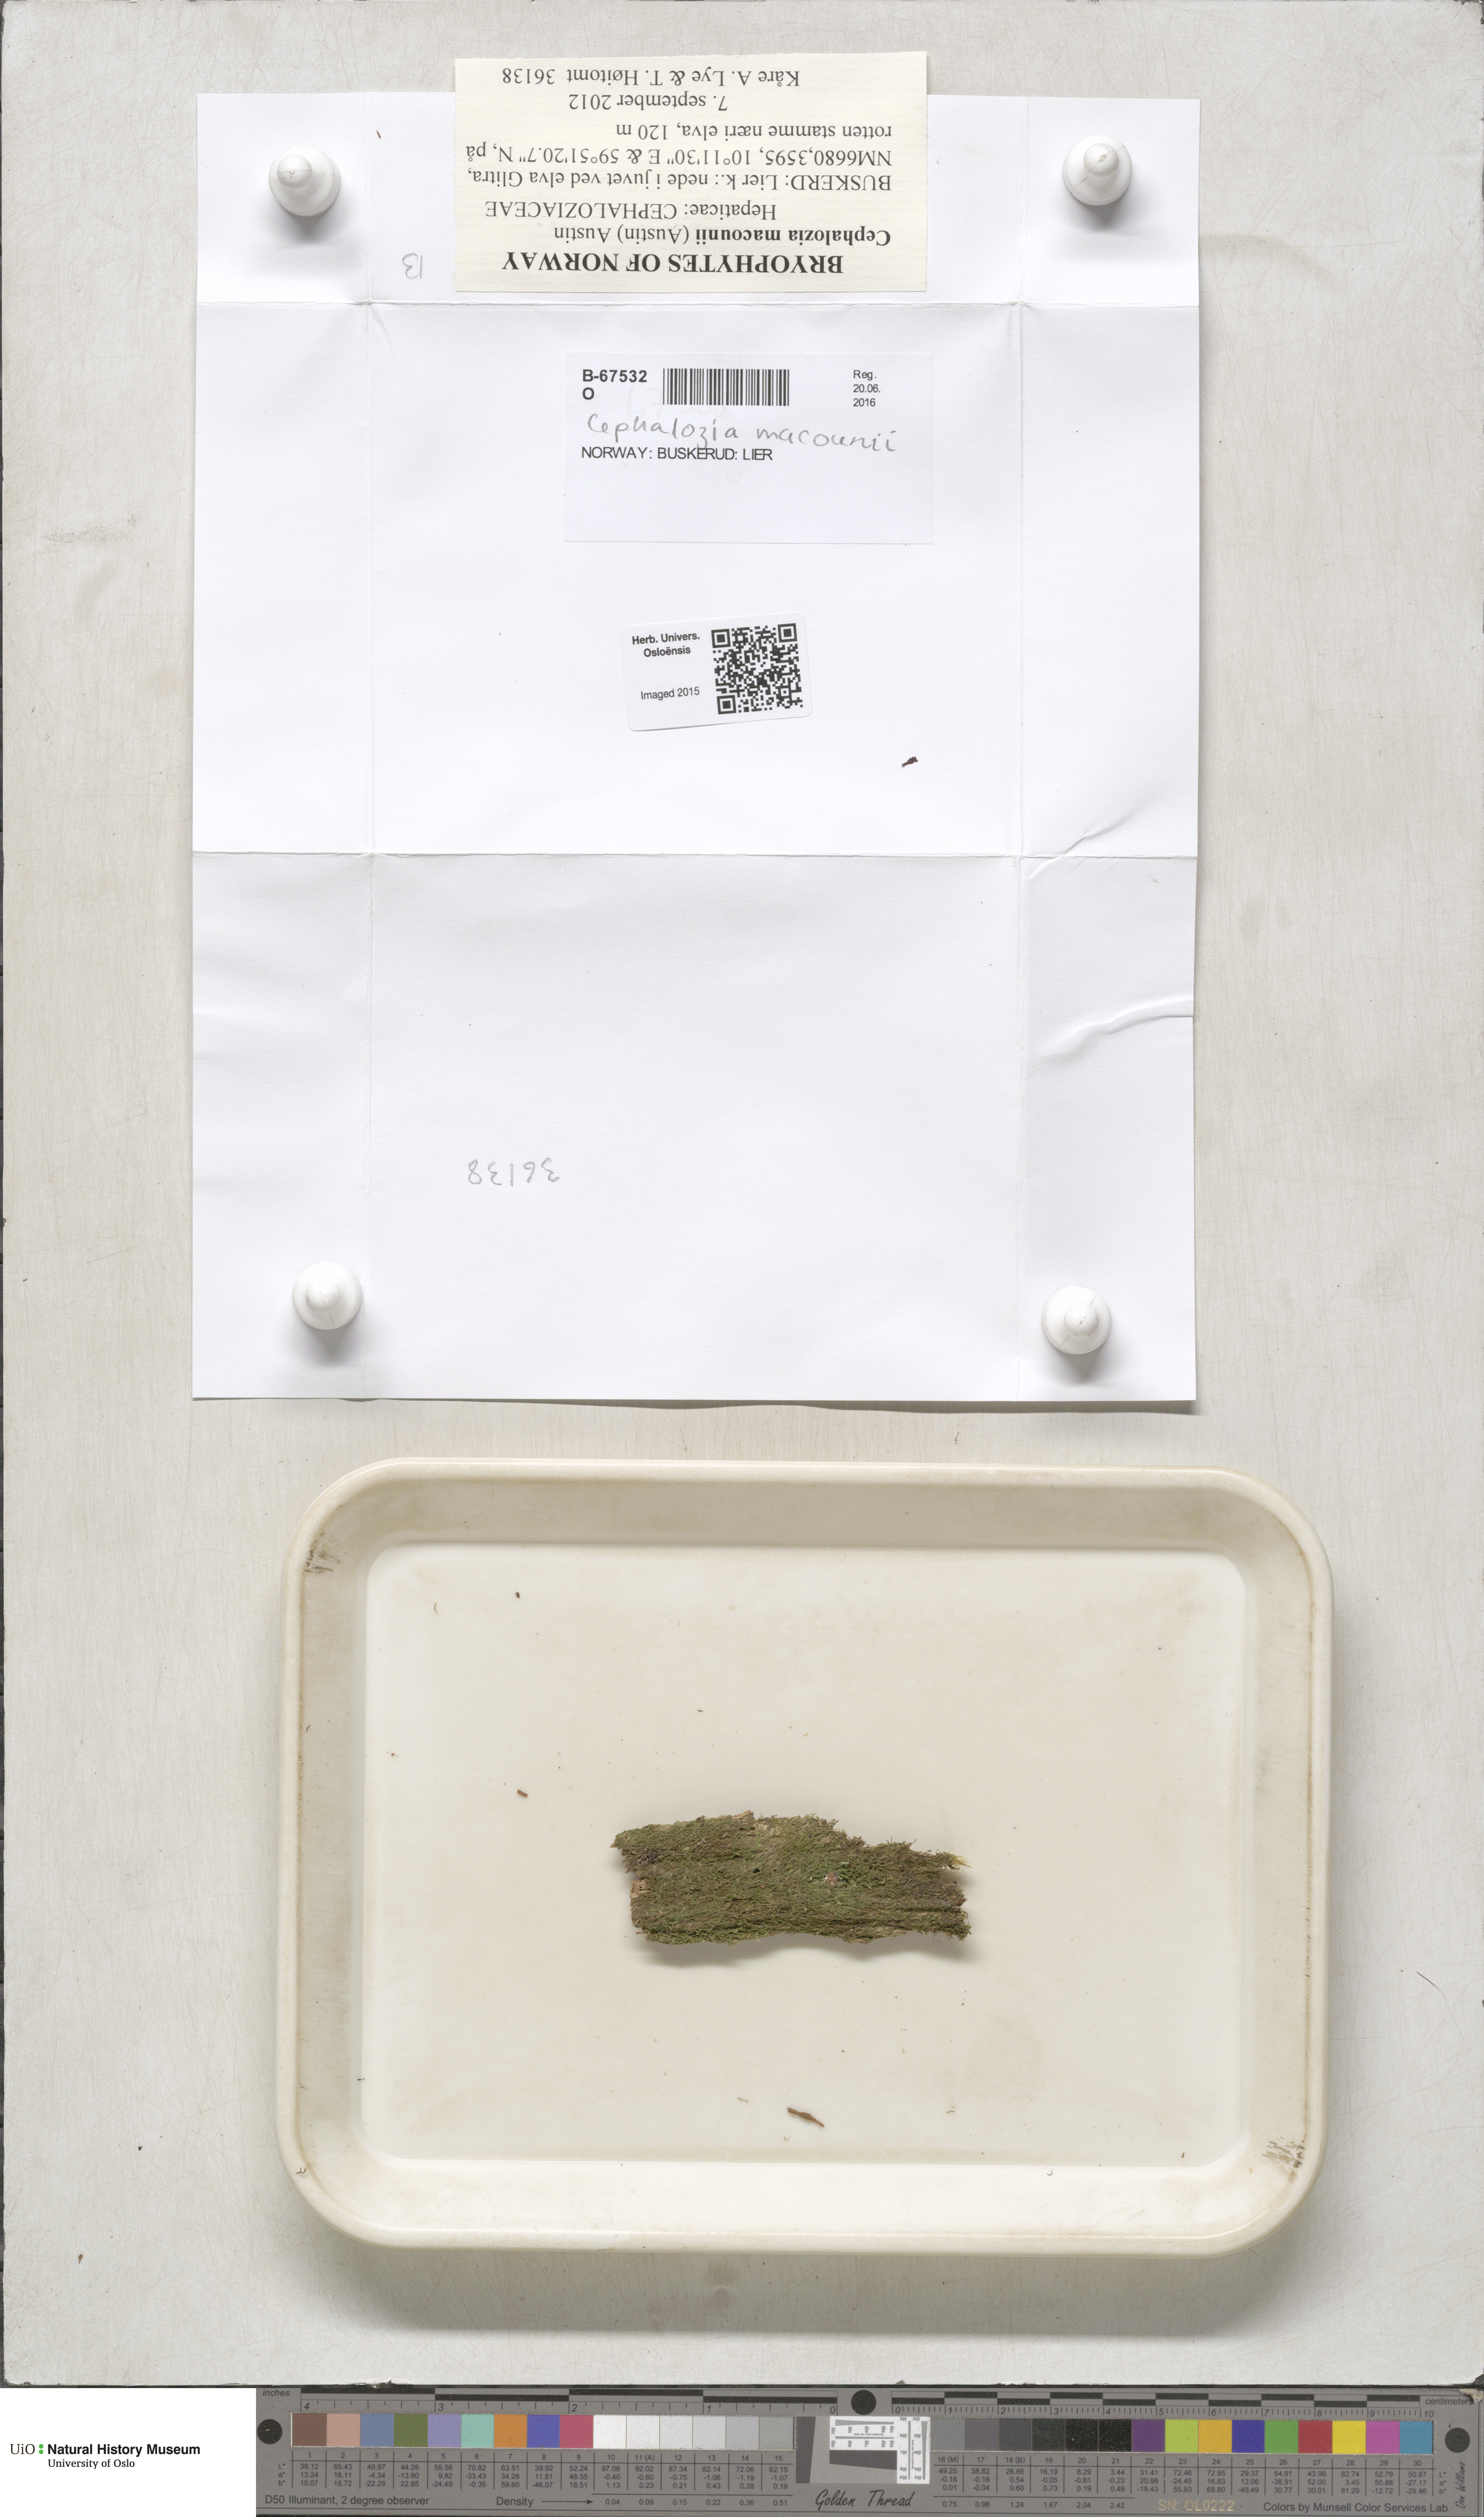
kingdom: Plantae
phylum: Marchantiophyta
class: Jungermanniopsida
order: Jungermanniales
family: Cephaloziaceae
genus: Cephalozia
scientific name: Cephalozia macounii
